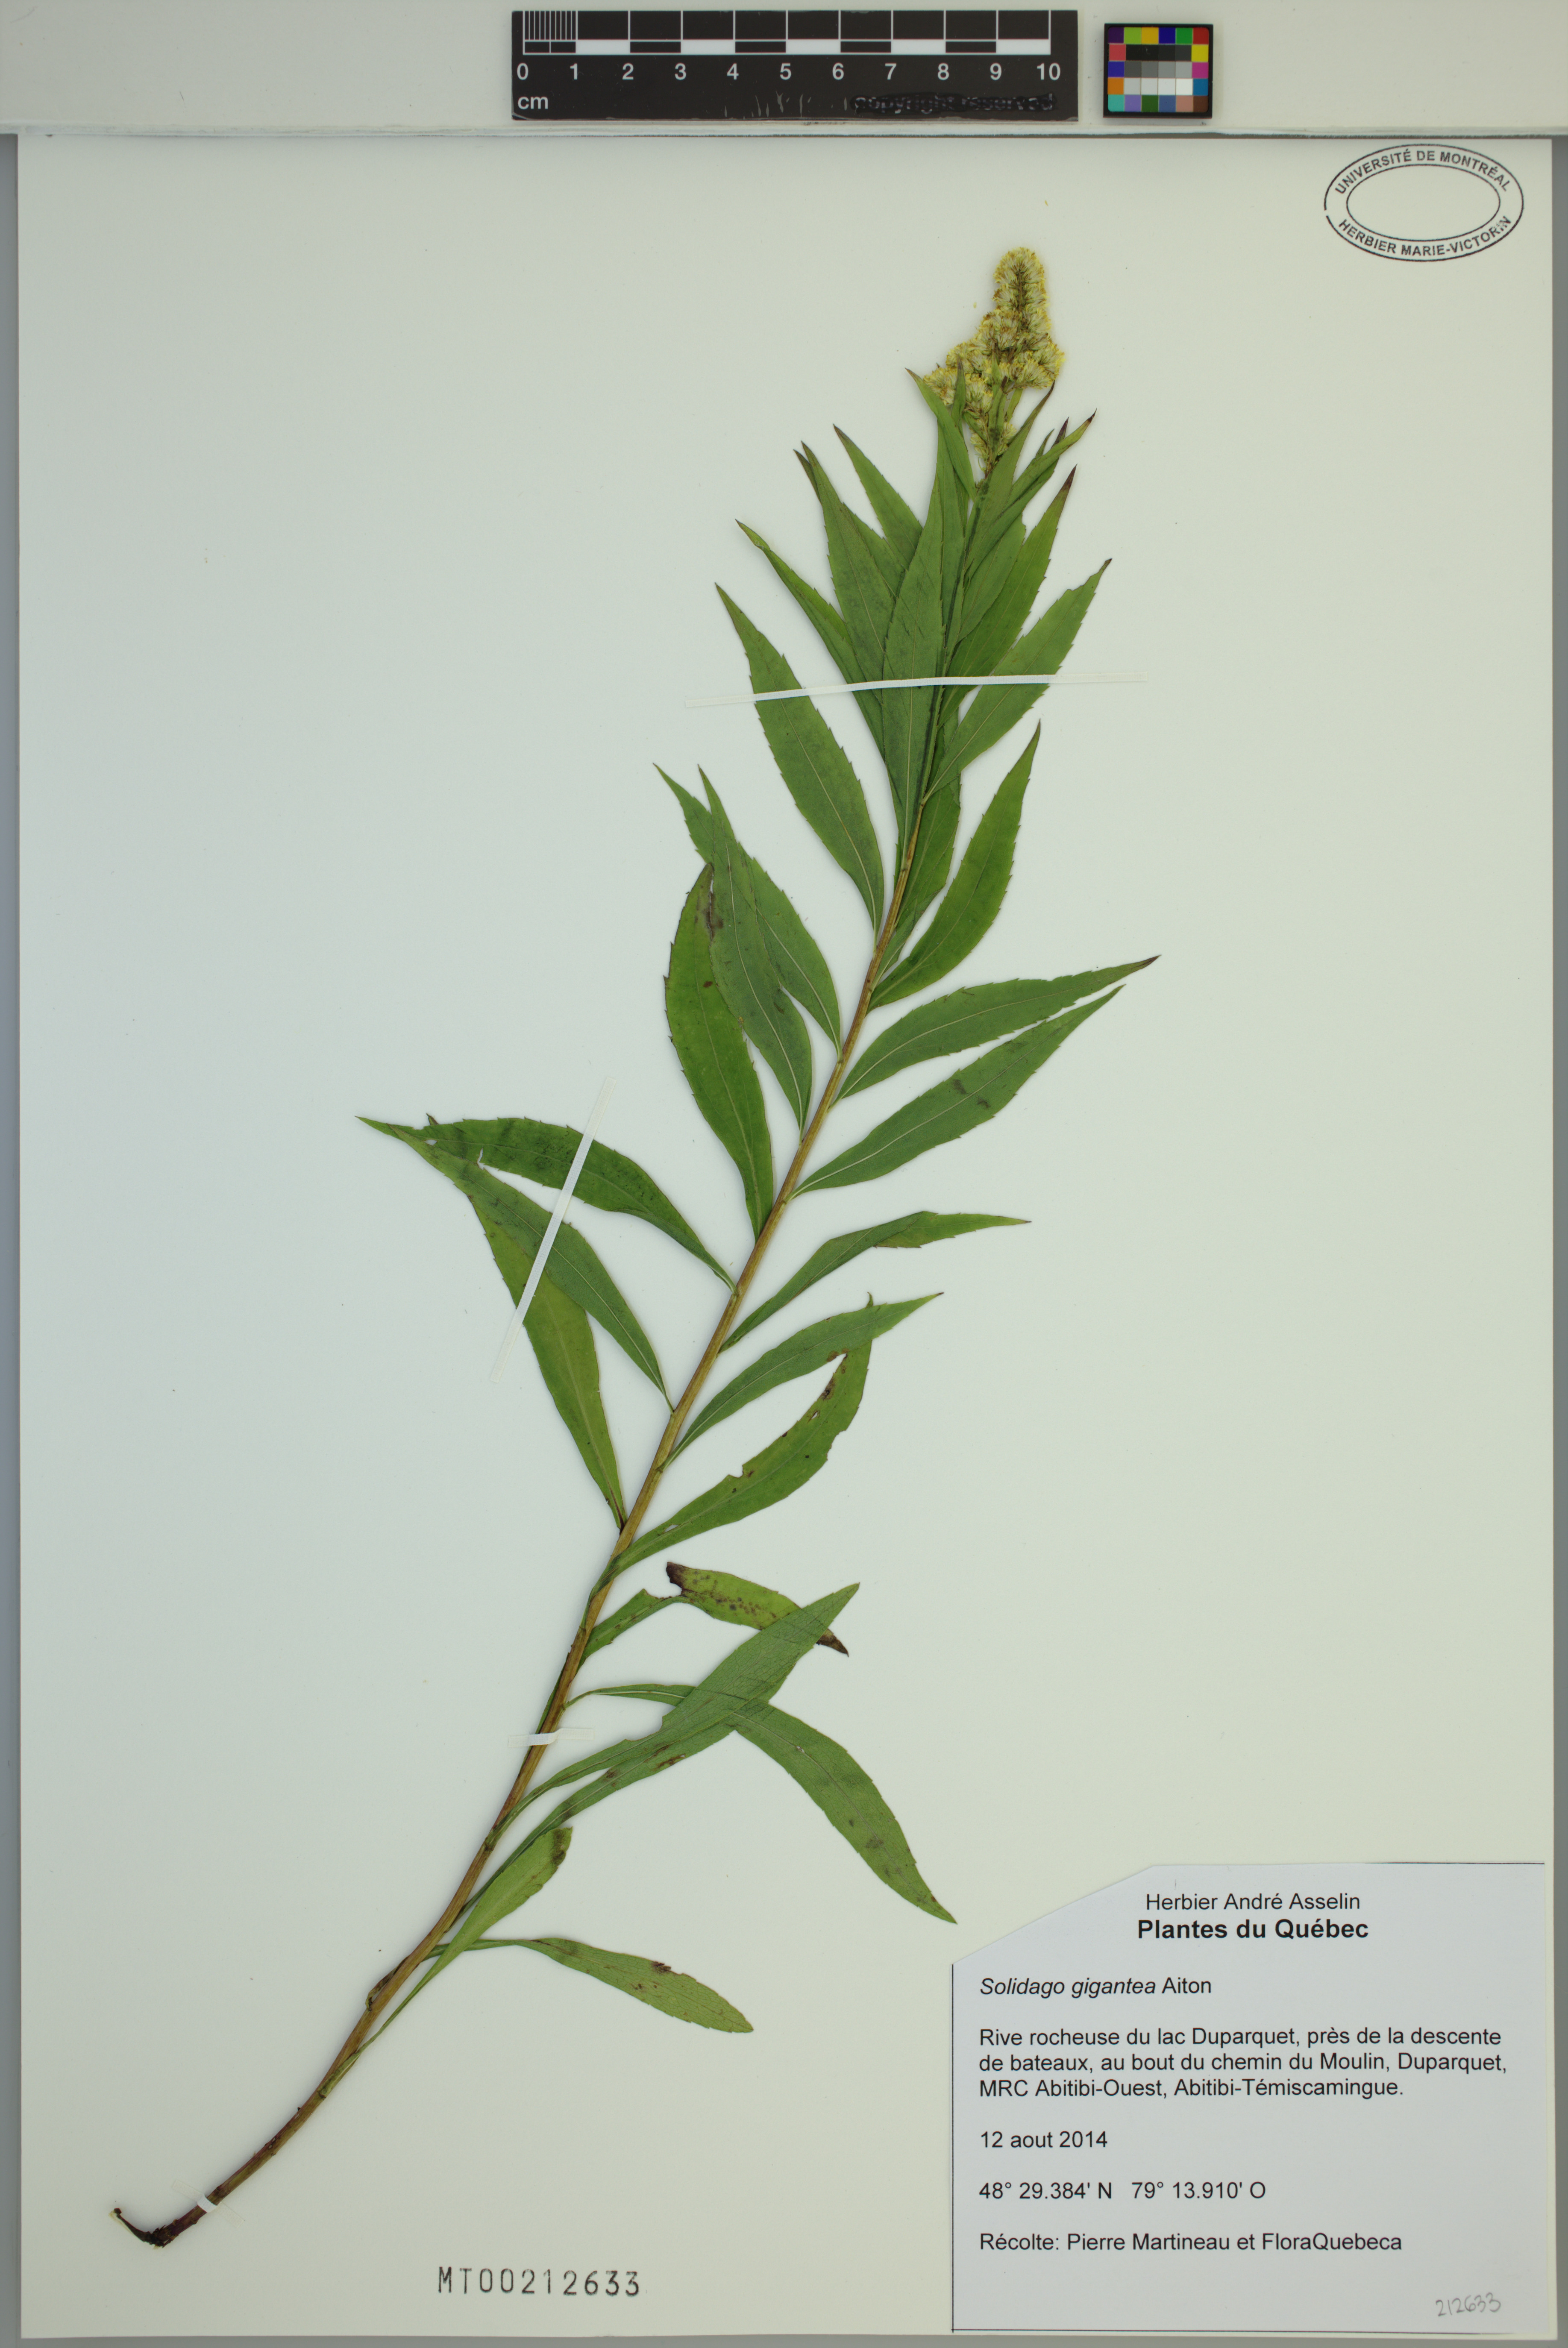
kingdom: Plantae
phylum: Tracheophyta
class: Magnoliopsida
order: Asterales
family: Asteraceae
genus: Solidago
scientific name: Solidago gigantea
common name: Giant goldenrod
